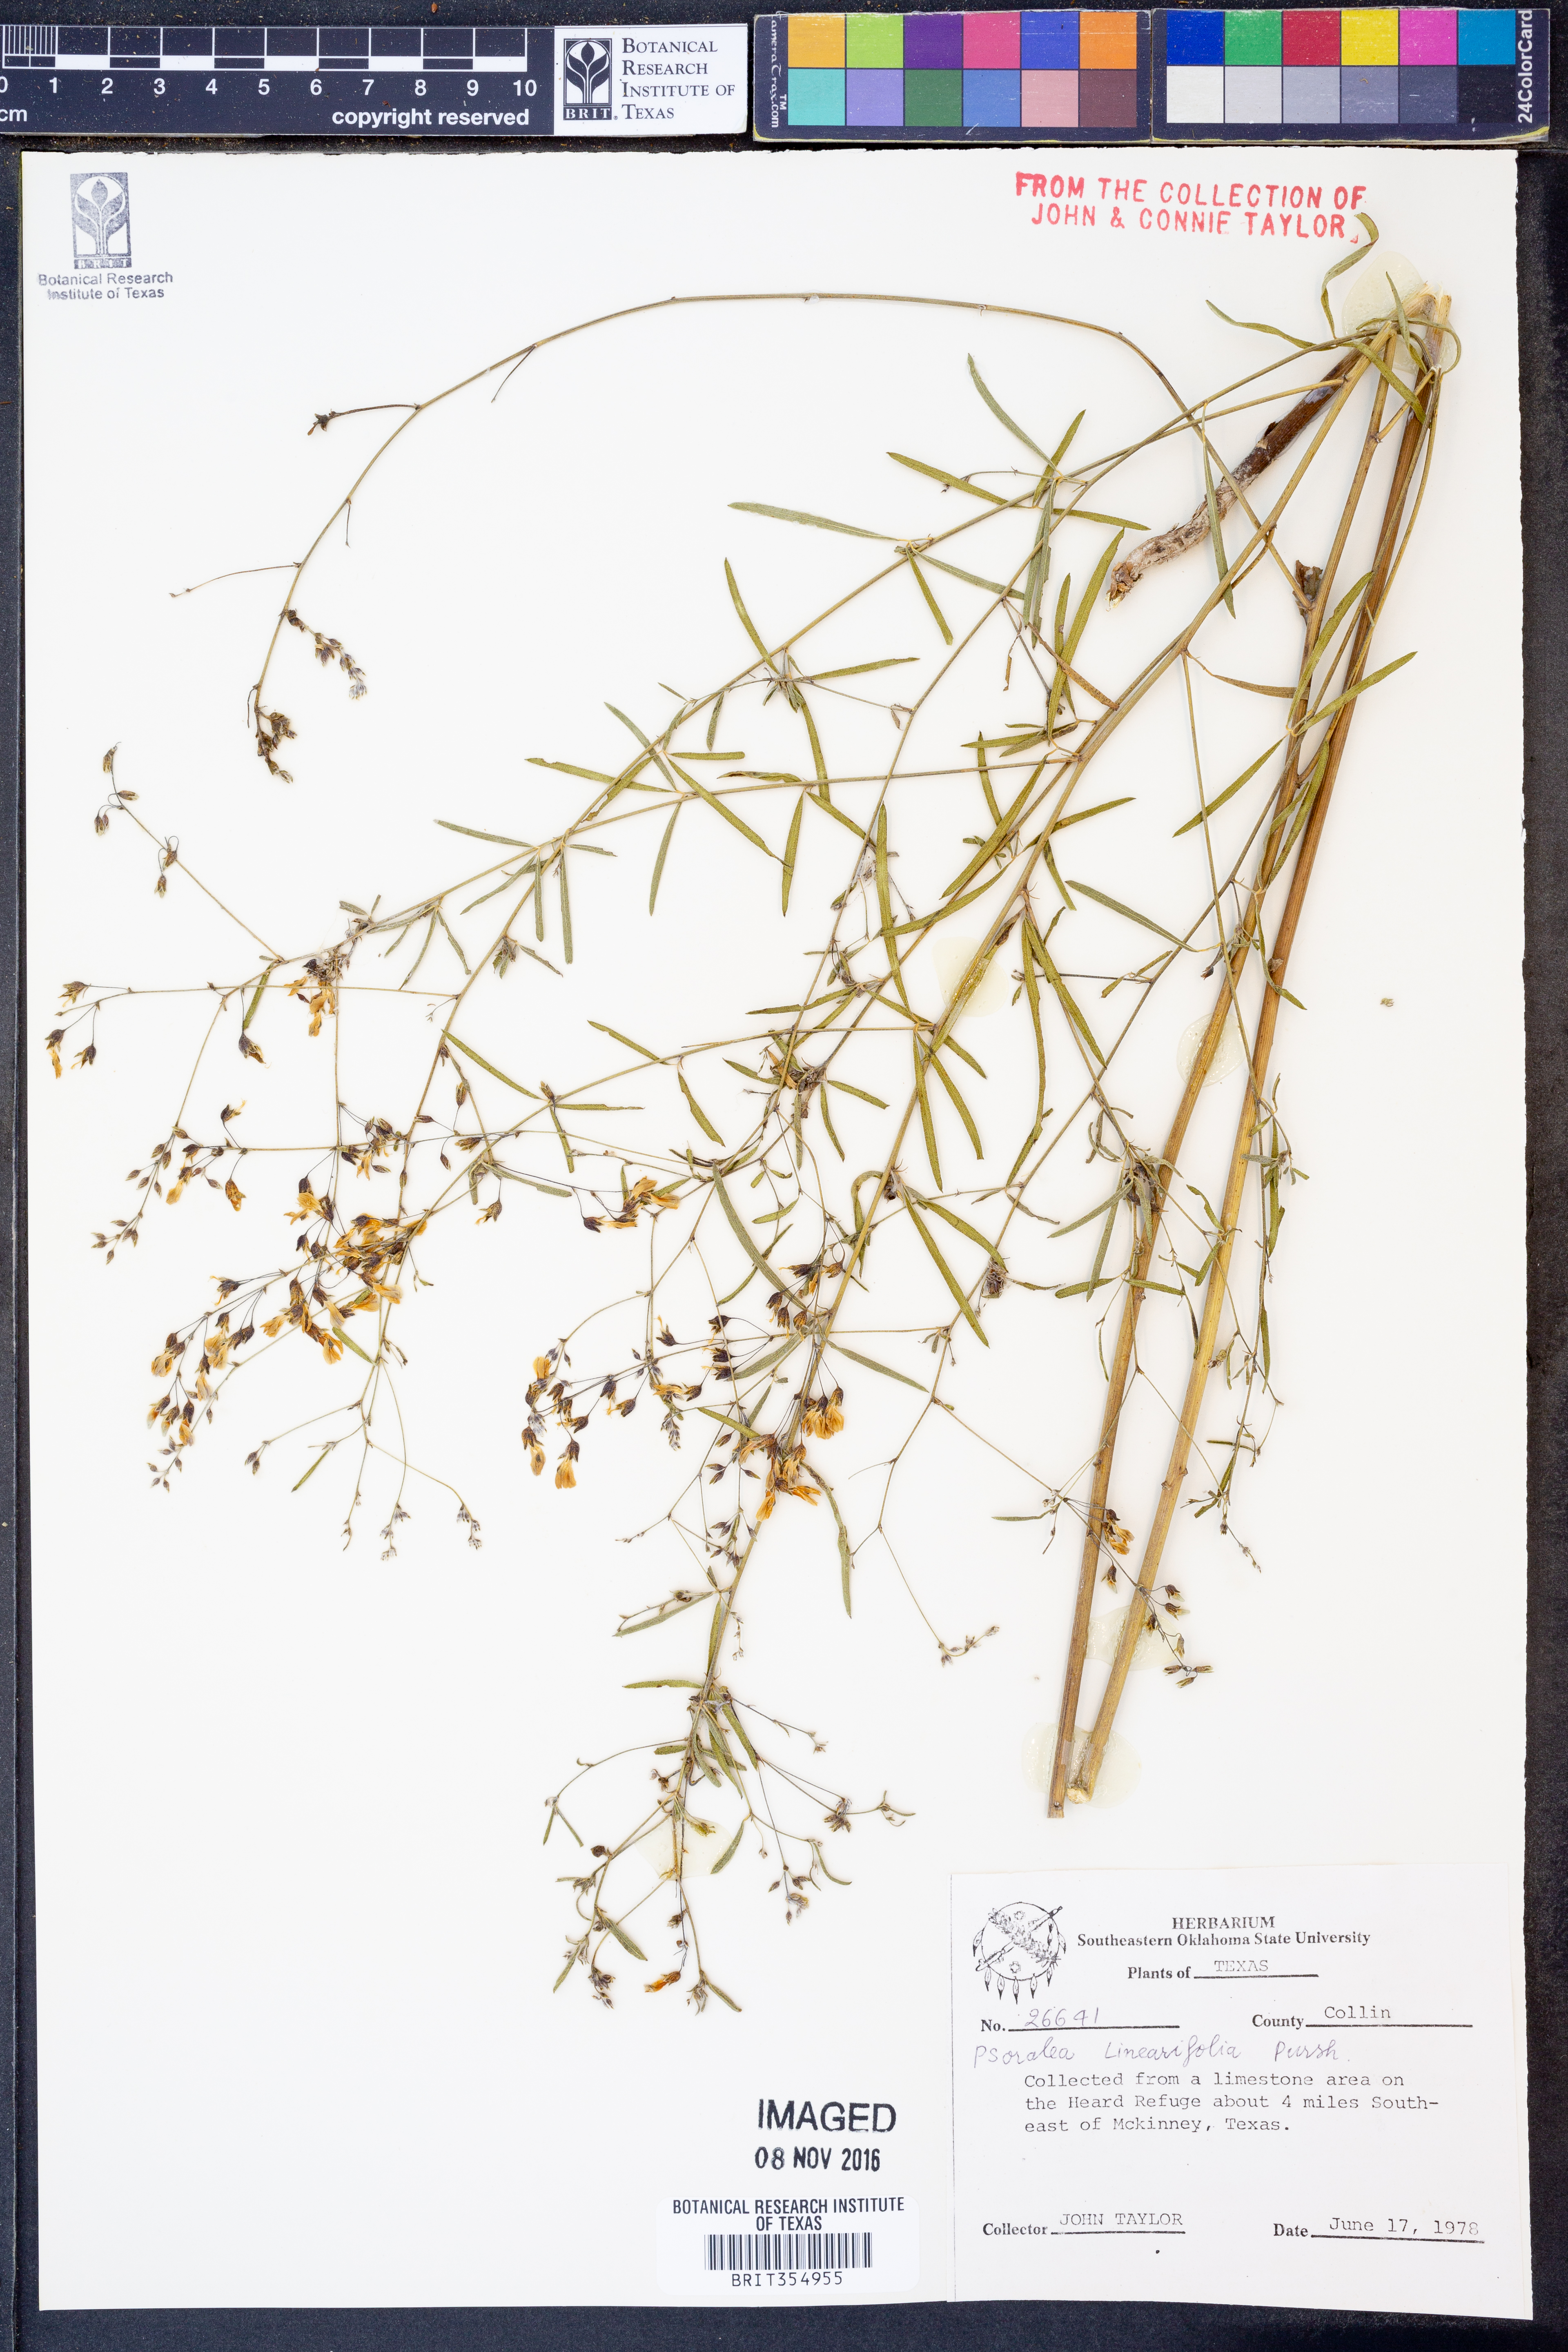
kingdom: Plantae
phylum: Tracheophyta
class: Magnoliopsida
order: Fabales
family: Fabaceae
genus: Pediomelum
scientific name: Pediomelum linearifolium
